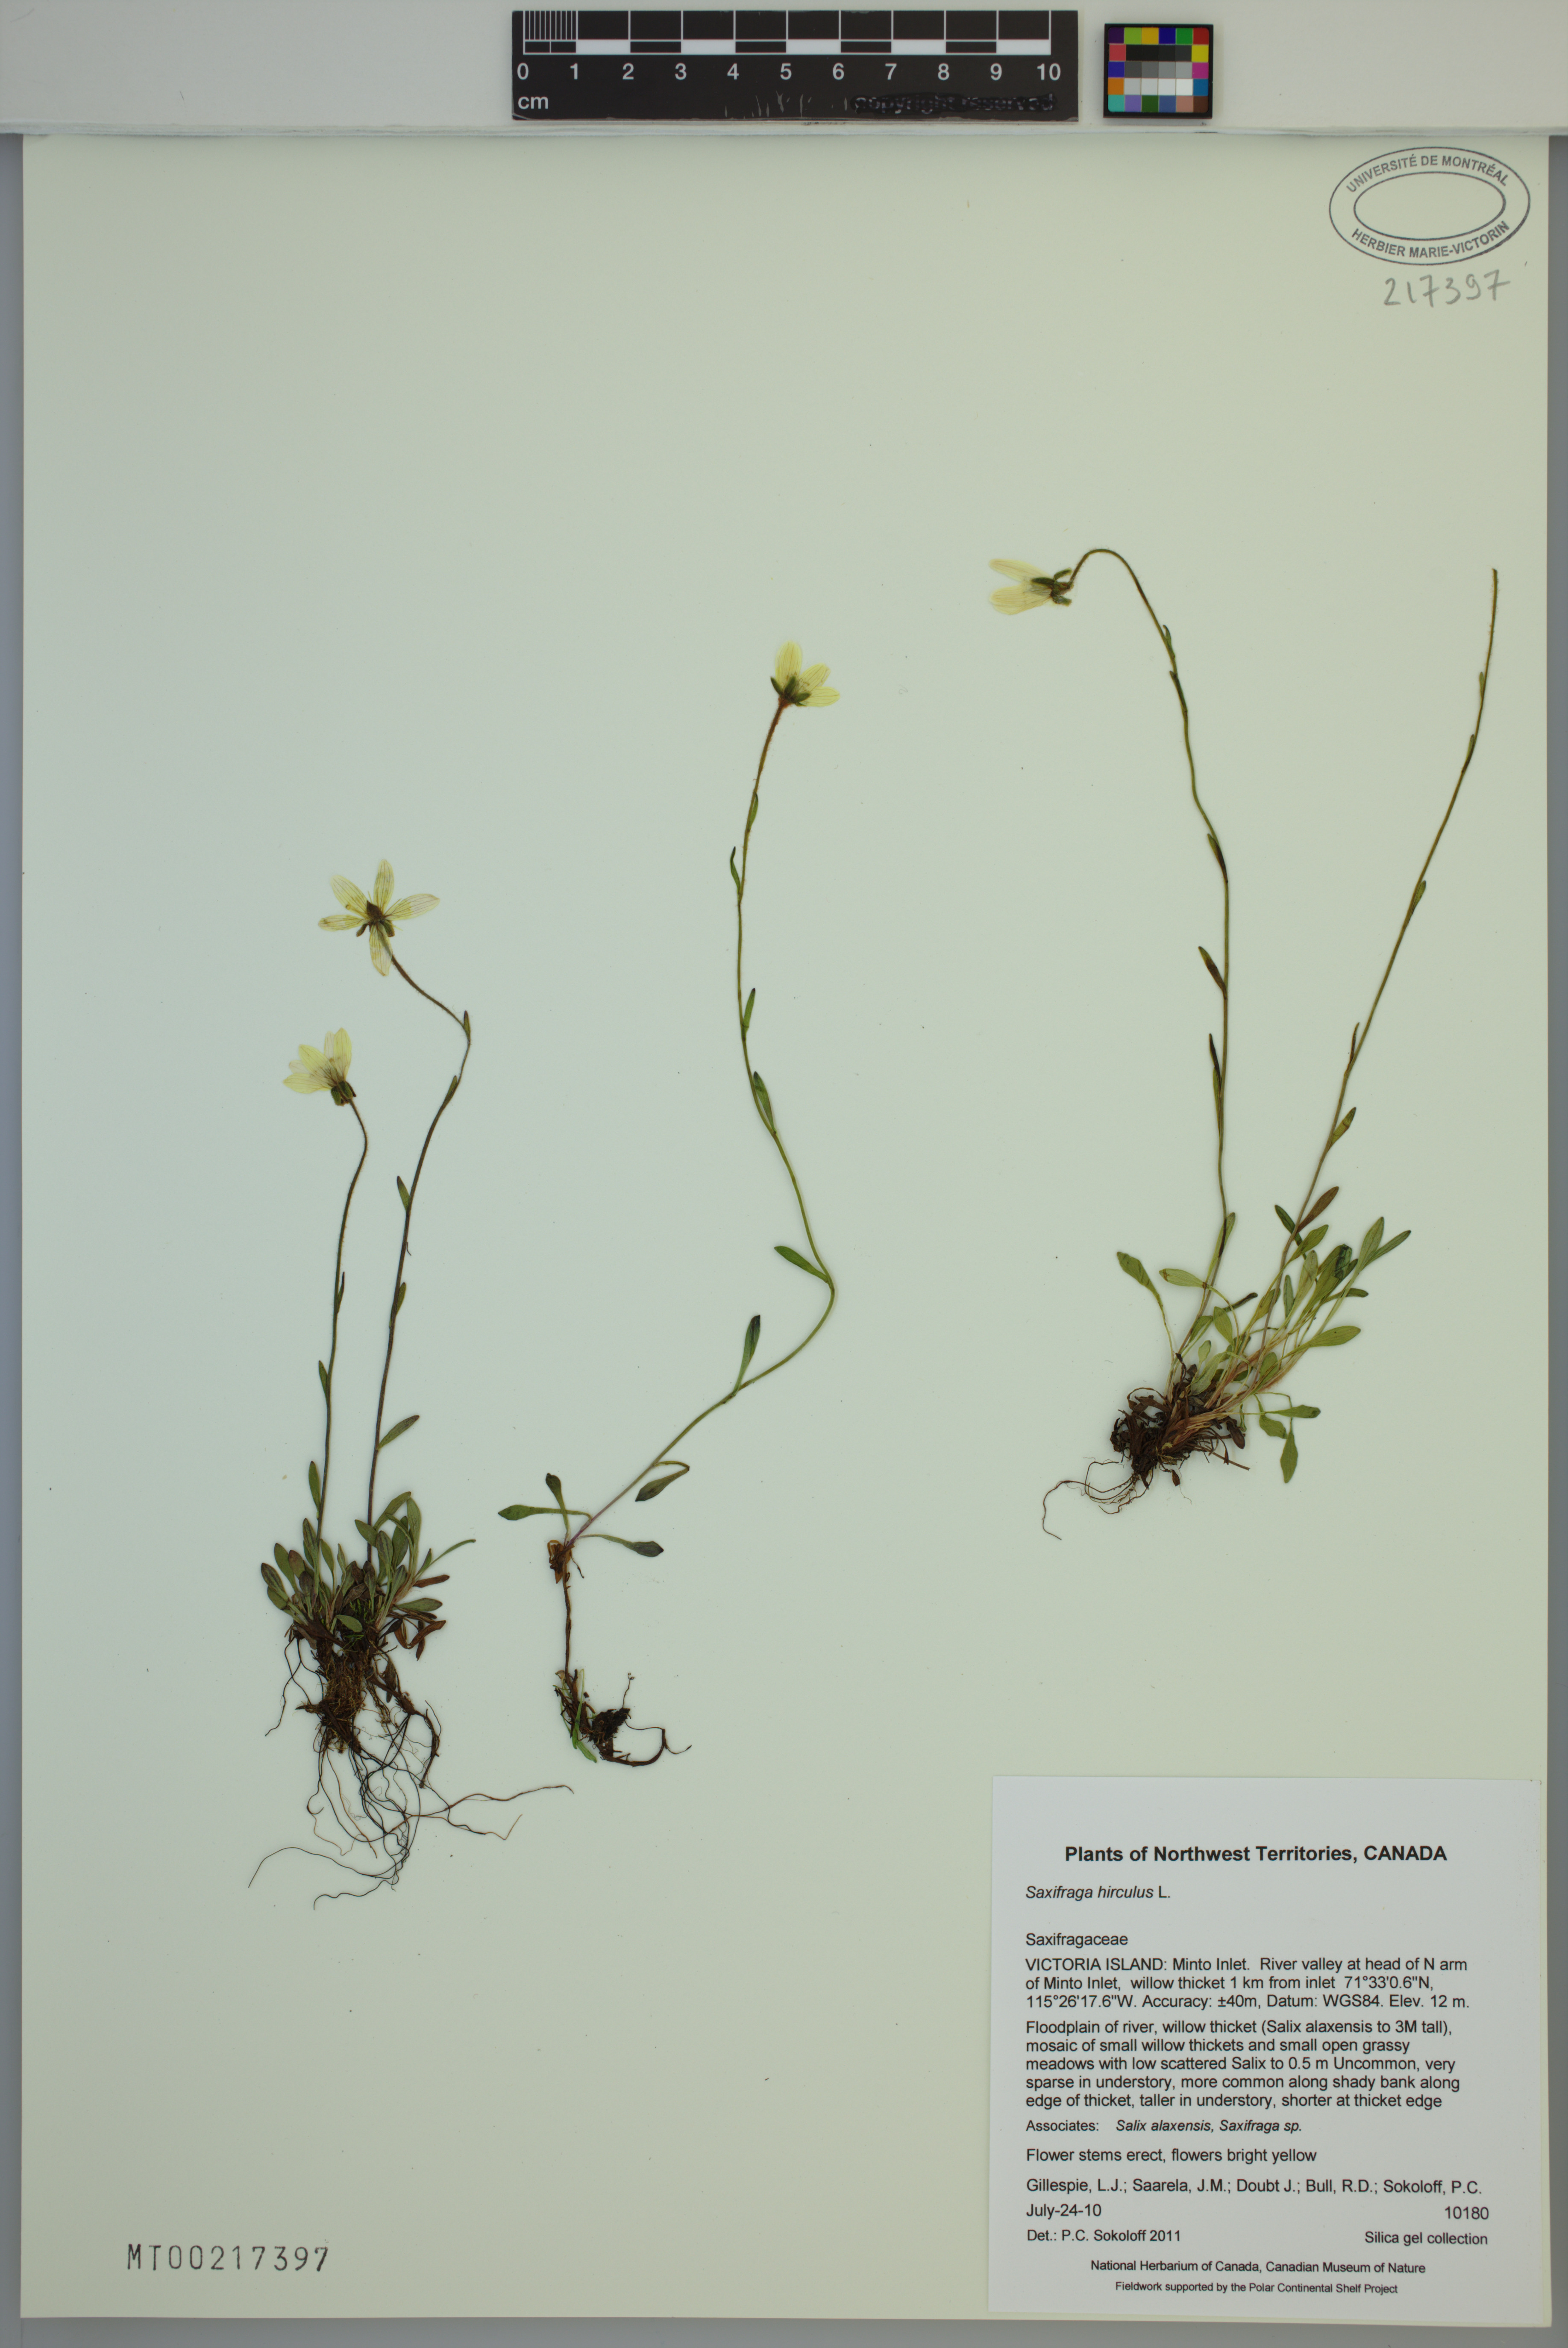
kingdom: Plantae
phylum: Tracheophyta
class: Magnoliopsida
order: Saxifragales
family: Saxifragaceae
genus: Saxifraga
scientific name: Saxifraga hirculus
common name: Yellow marsh saxifrage
